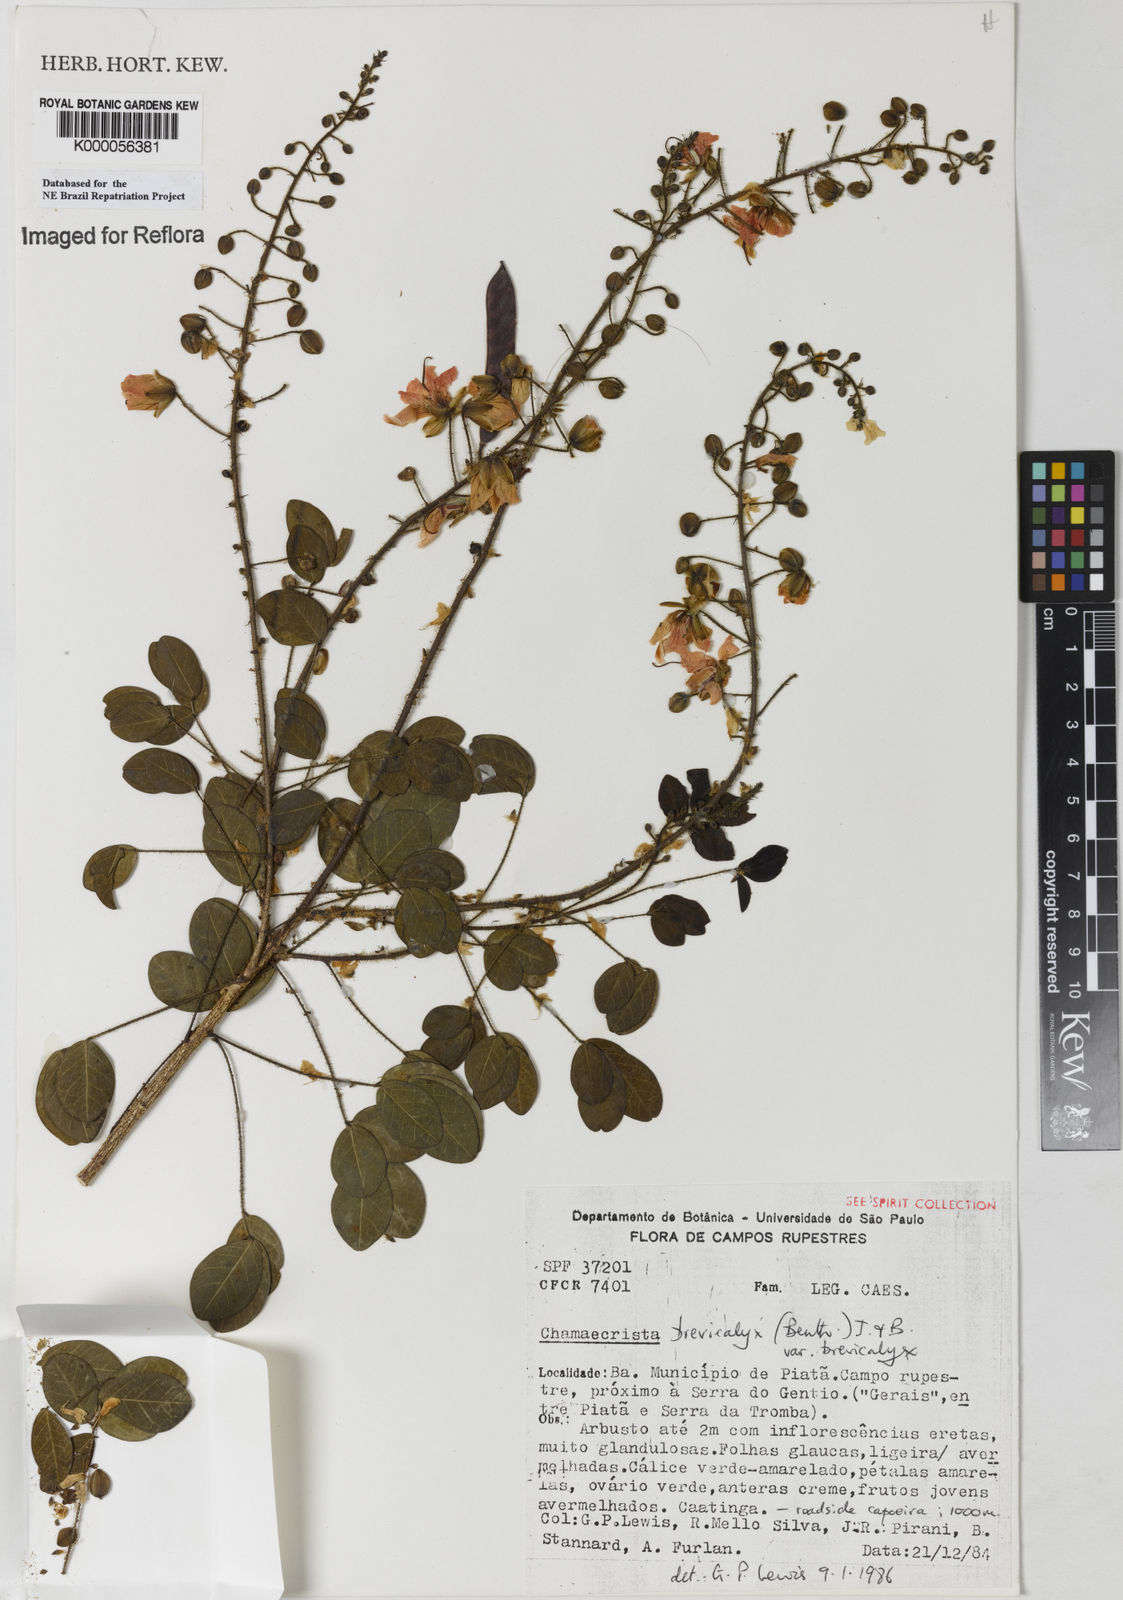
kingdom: Plantae
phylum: Tracheophyta
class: Magnoliopsida
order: Fabales
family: Fabaceae
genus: Chamaecrista
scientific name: Chamaecrista brevicalyx
